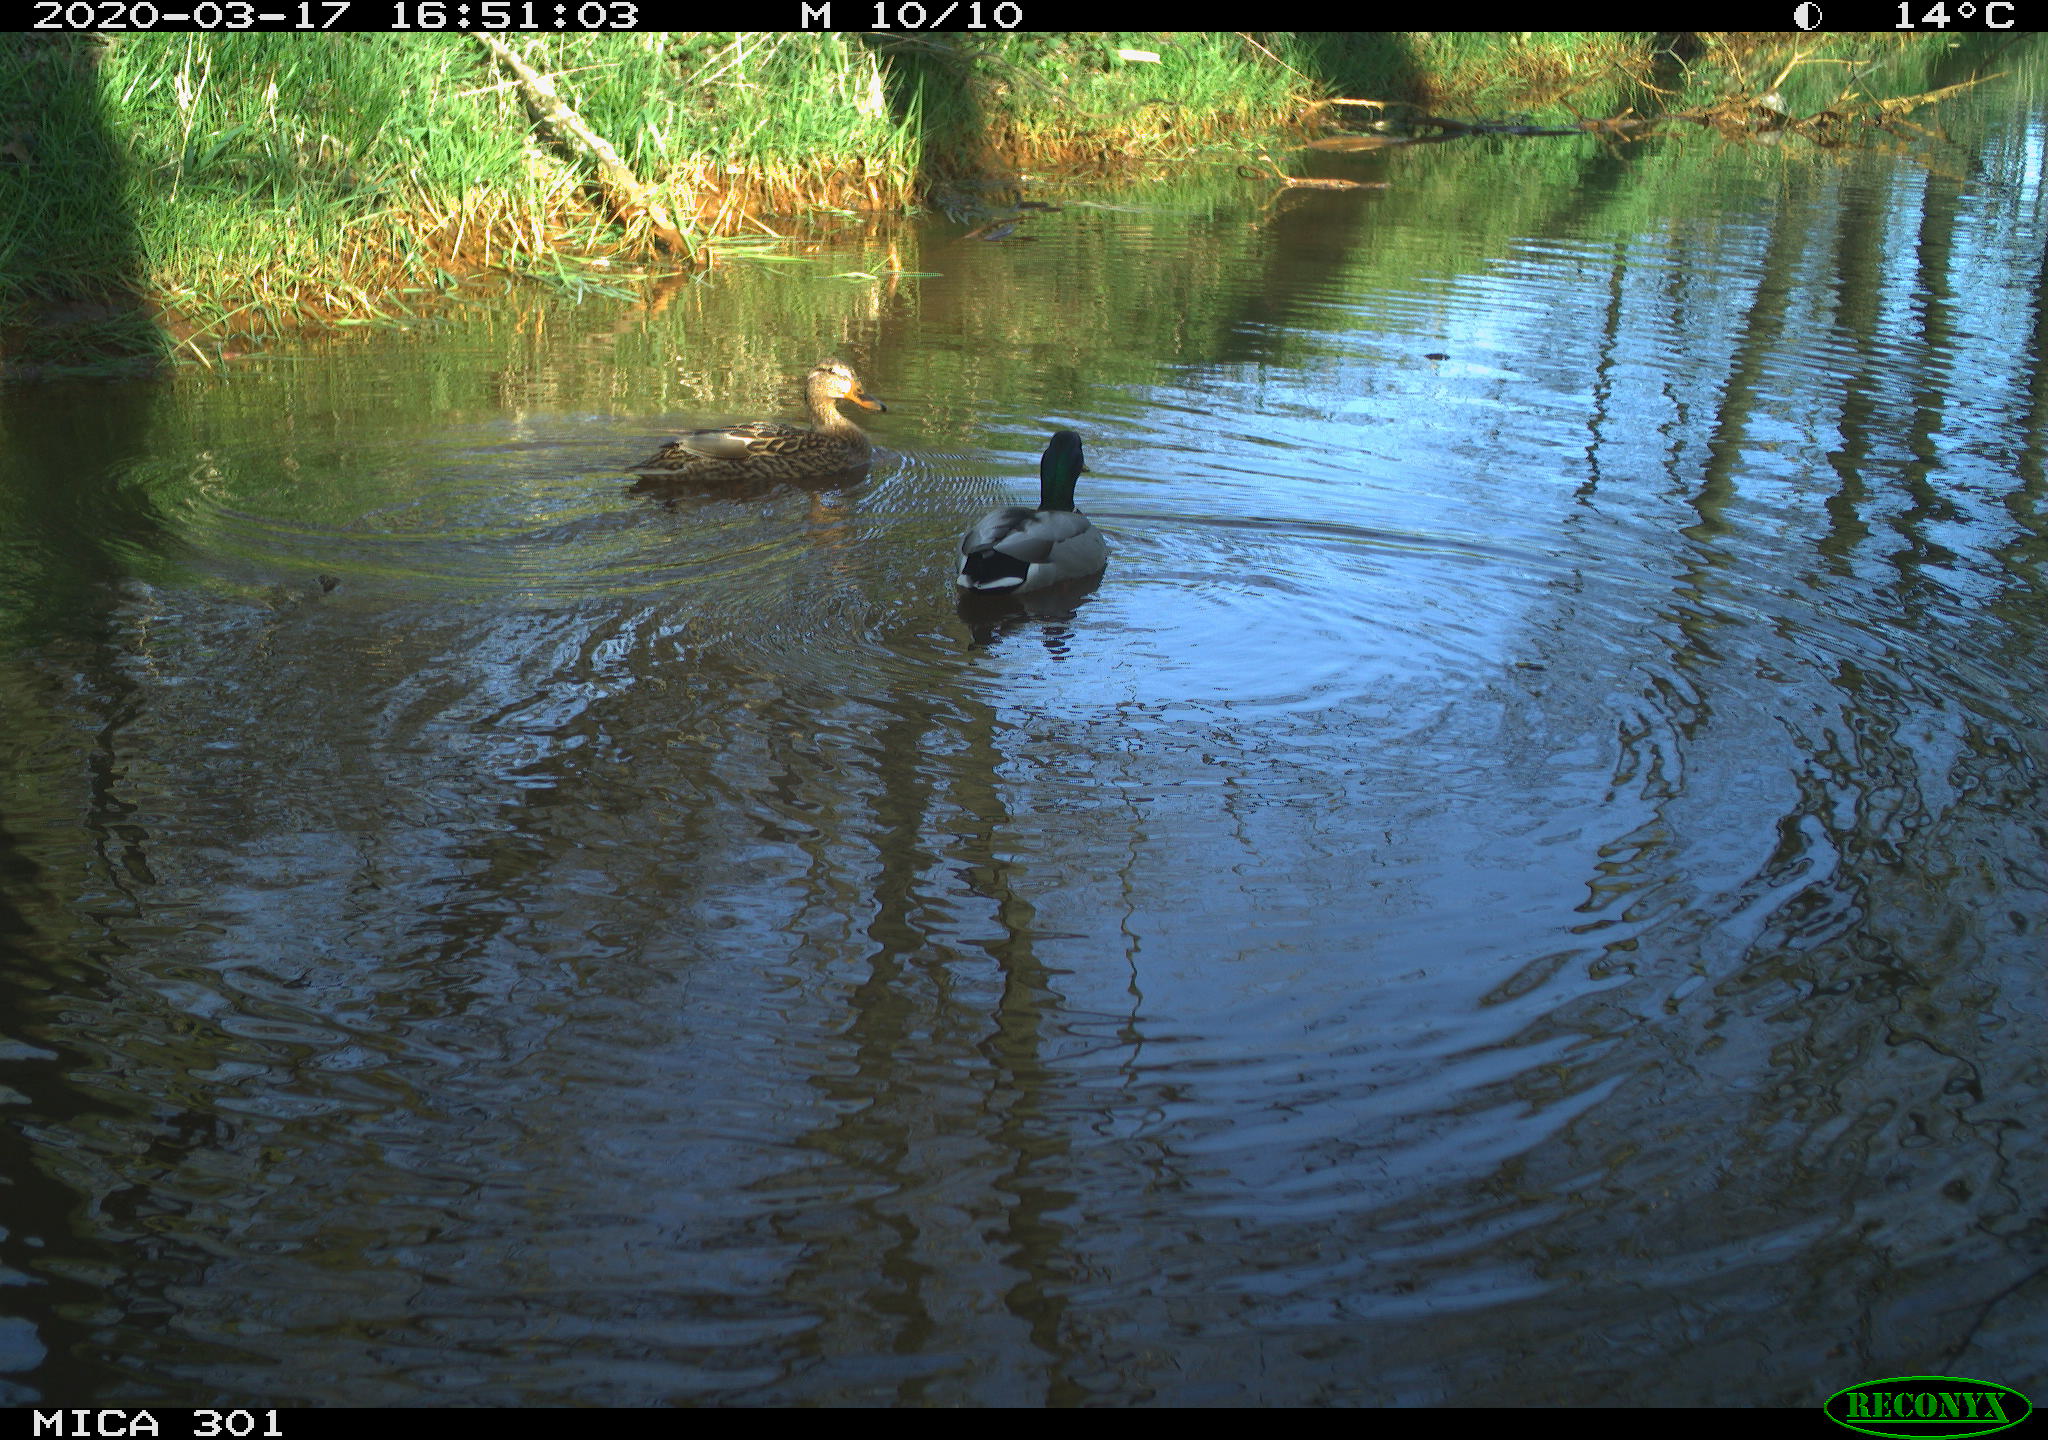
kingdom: Animalia
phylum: Chordata
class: Aves
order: Anseriformes
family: Anatidae
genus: Anas
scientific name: Anas platyrhynchos
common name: Mallard
